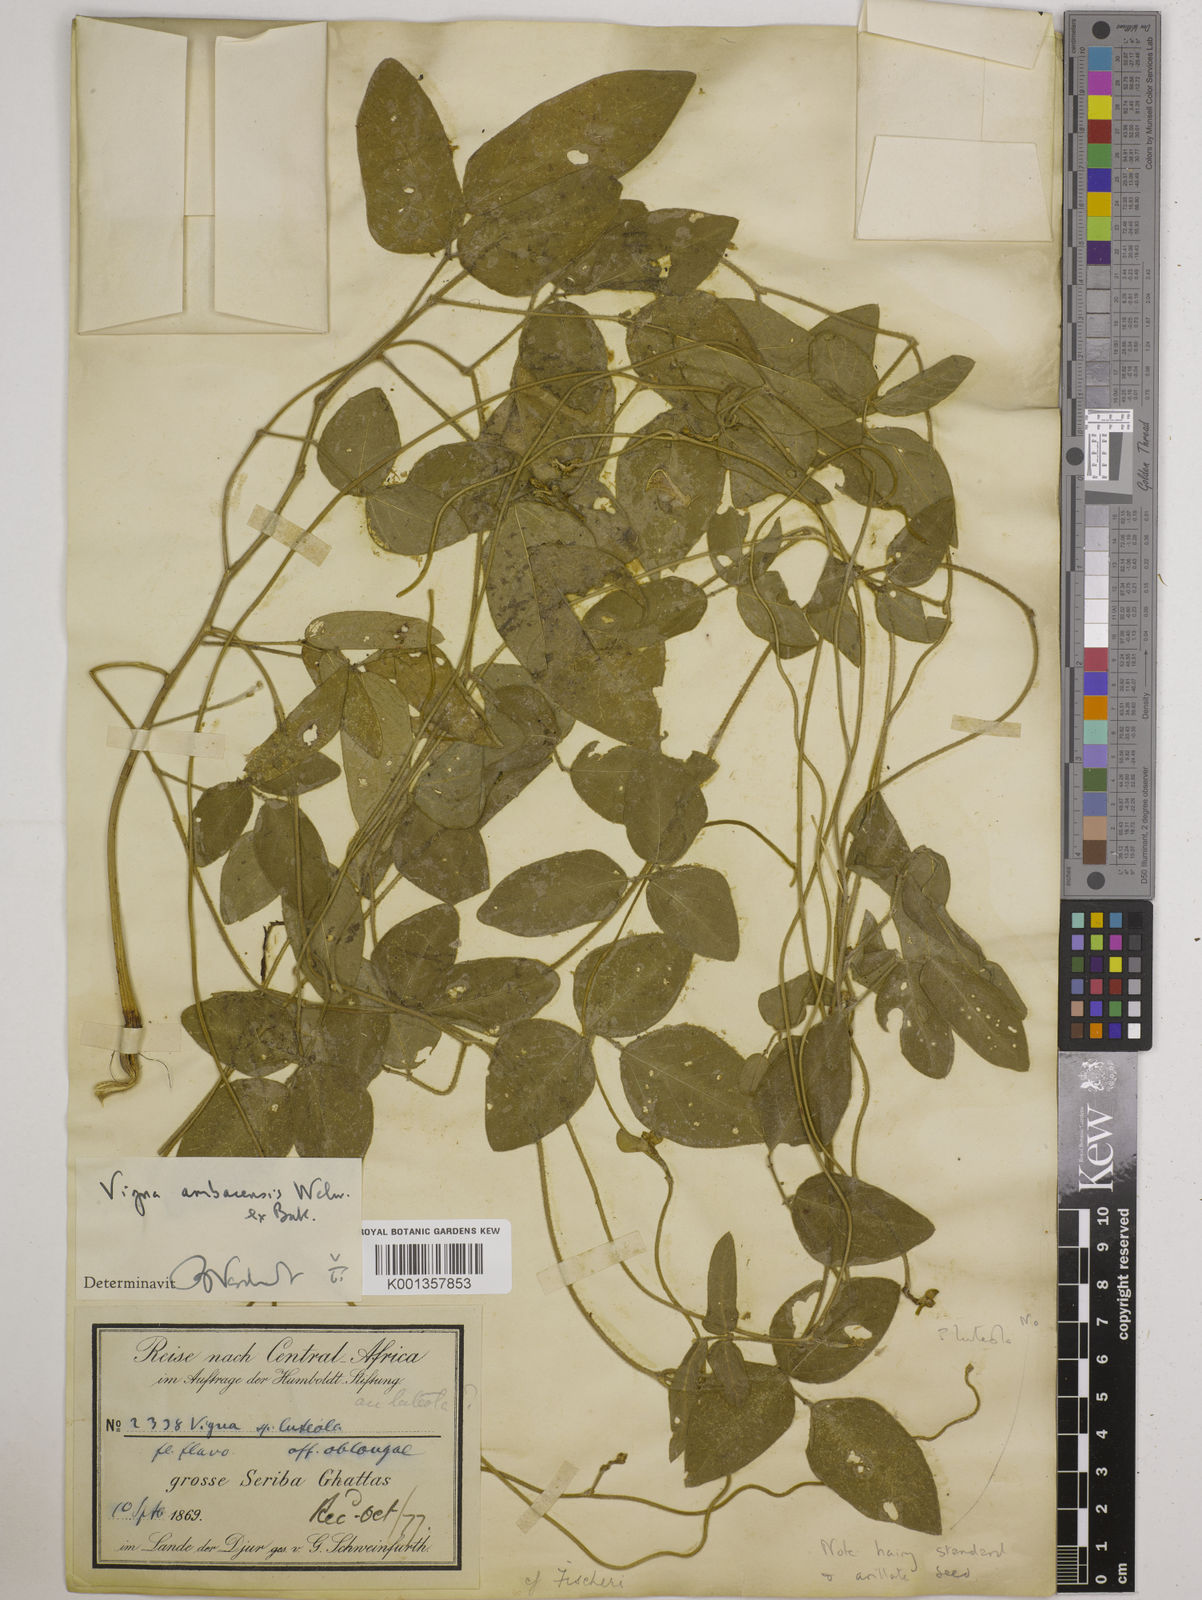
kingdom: Plantae
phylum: Tracheophyta
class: Magnoliopsida
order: Fabales
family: Fabaceae
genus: Vigna
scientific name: Vigna ambacensis
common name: Tsarkiyan zomo
